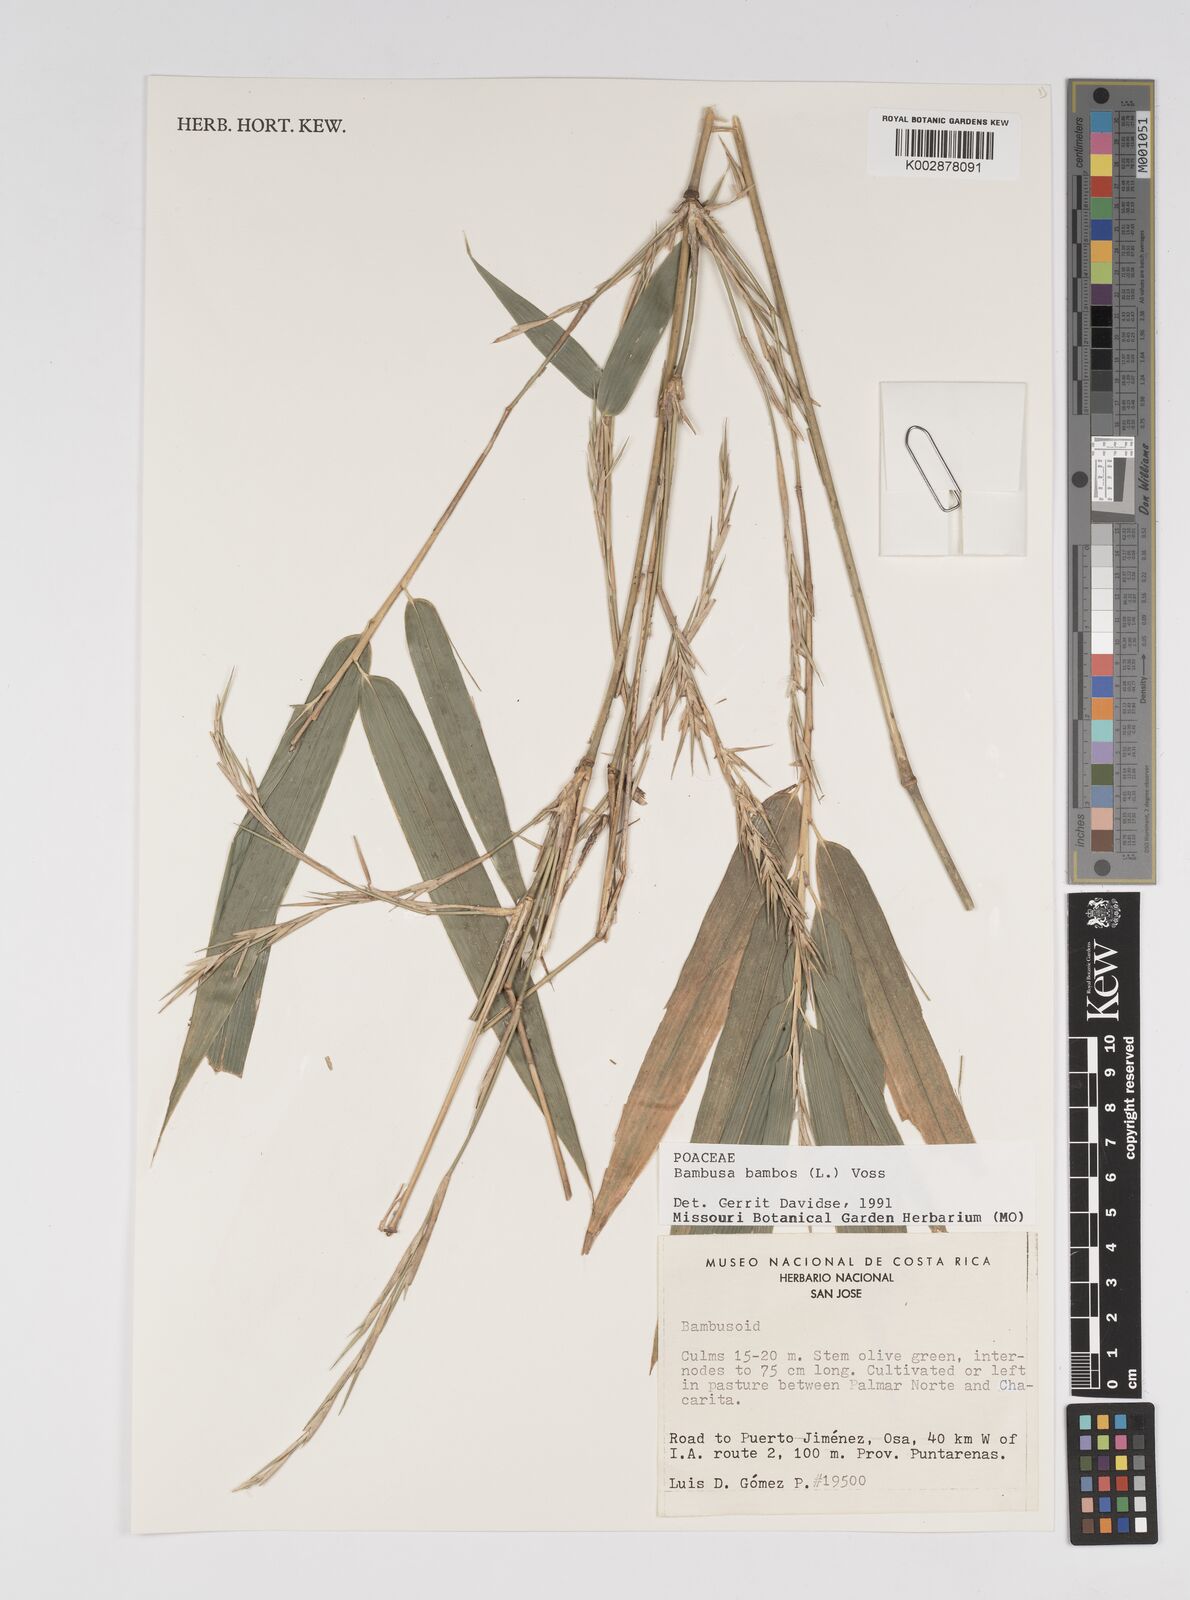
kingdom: Plantae
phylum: Tracheophyta
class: Liliopsida
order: Poales
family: Poaceae
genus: Bambusa
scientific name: Bambusa bambos
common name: Indian thorny bamboo
